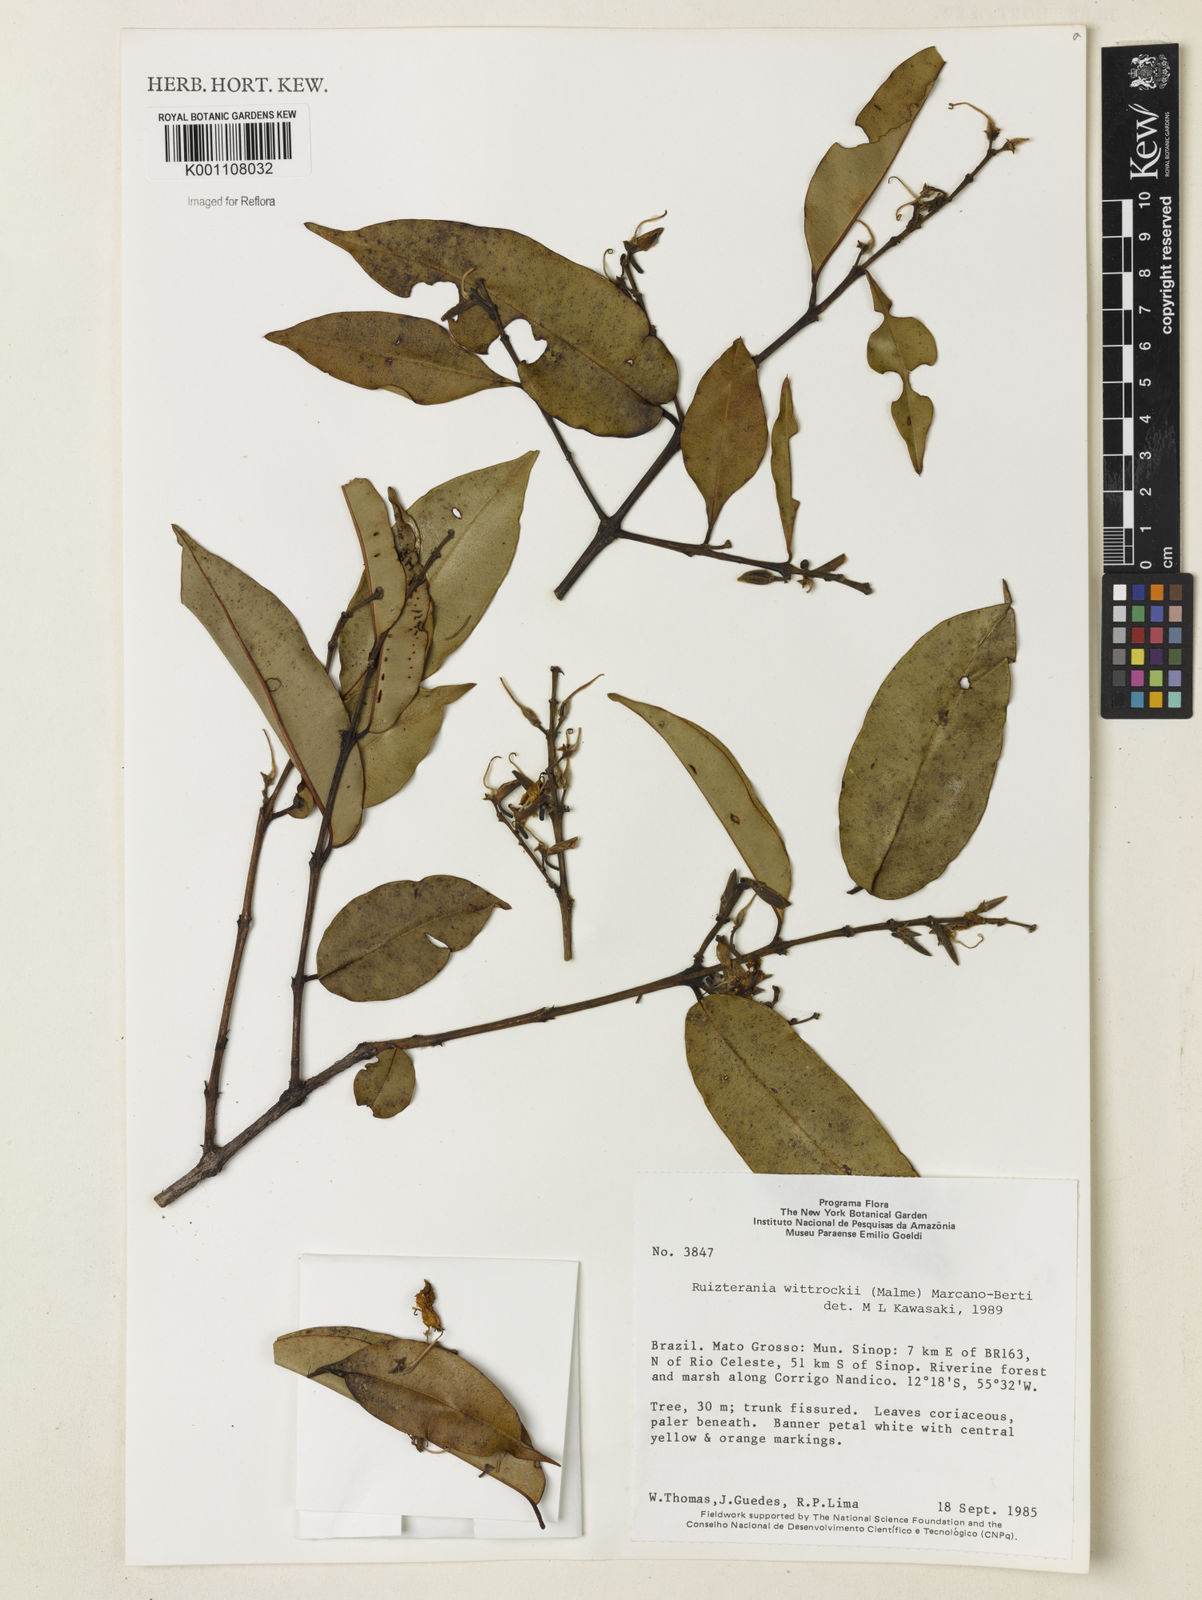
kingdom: Plantae
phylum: Tracheophyta
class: Magnoliopsida
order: Myrtales
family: Vochysiaceae
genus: Ruizterania
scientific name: Ruizterania wittrockii
